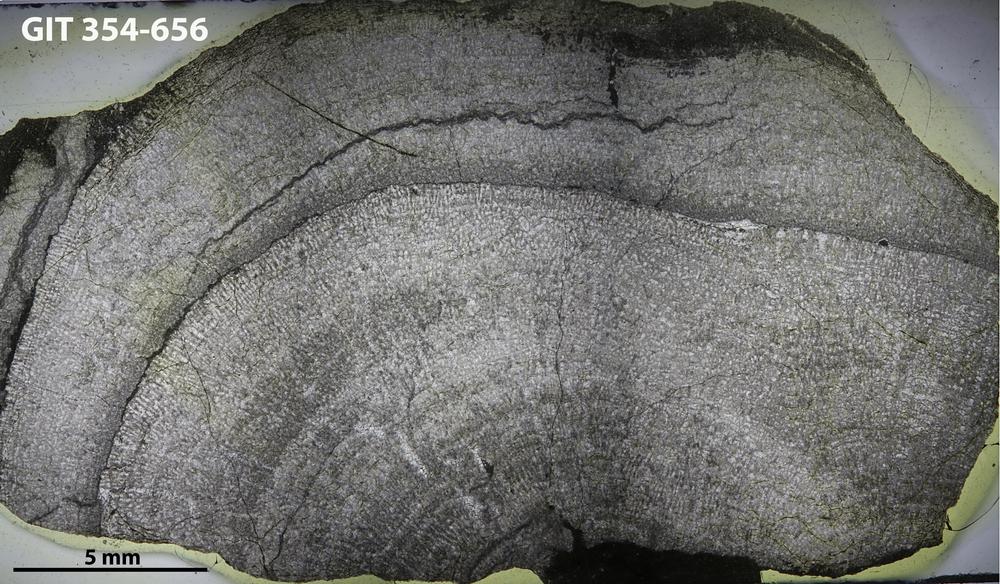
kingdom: Animalia
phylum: Porifera
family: Pseudolabechiidae
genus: Vikingia
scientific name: Vikingia
